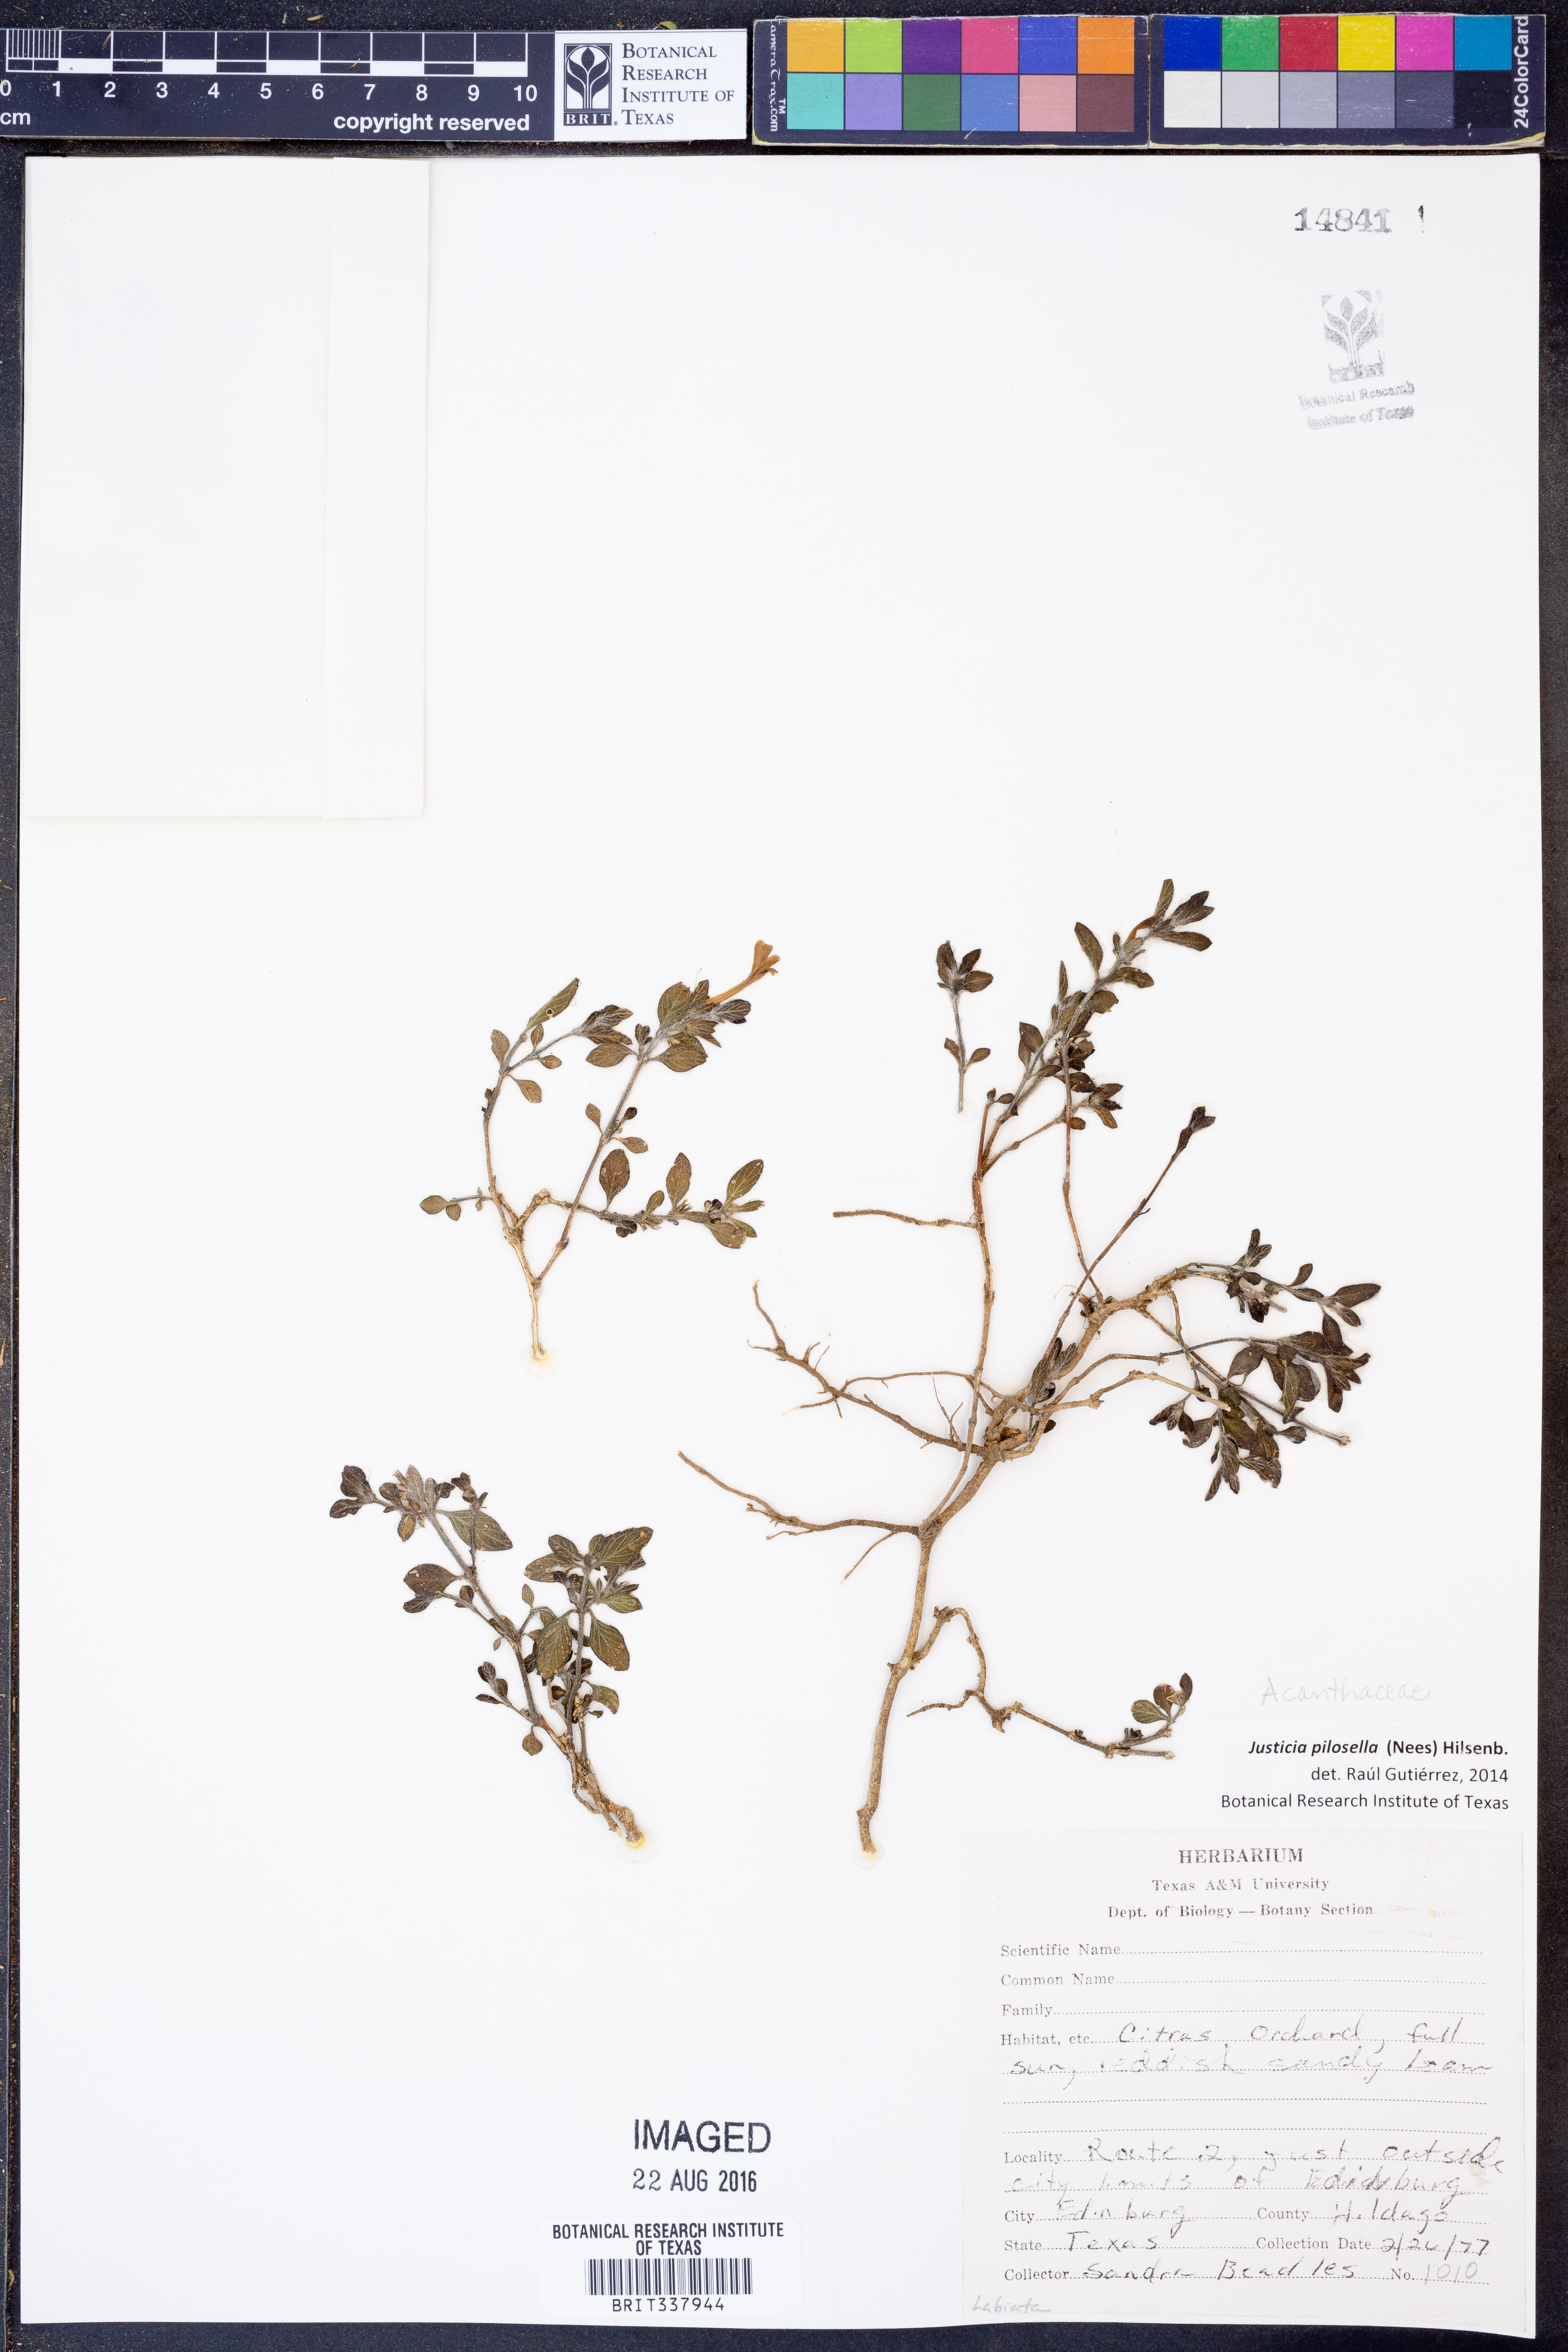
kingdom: Plantae
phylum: Tracheophyta
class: Magnoliopsida
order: Lamiales
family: Acanthaceae
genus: Justicia
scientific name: Justicia pilosella
